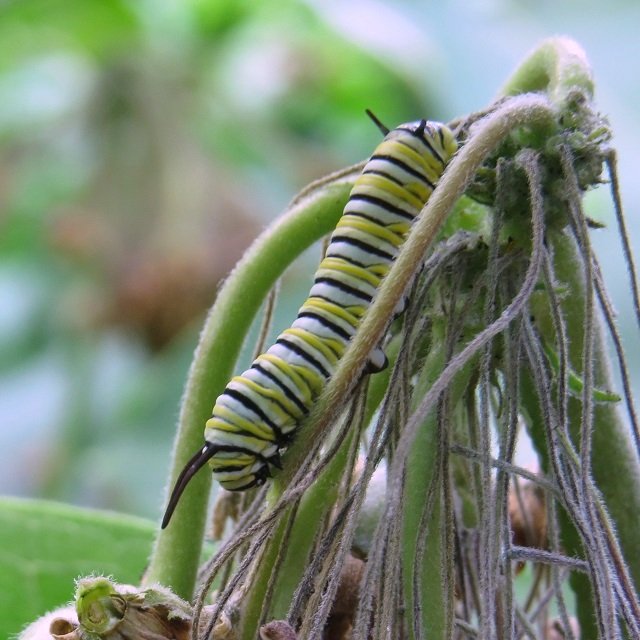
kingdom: Animalia
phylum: Arthropoda
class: Insecta
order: Lepidoptera
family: Nymphalidae
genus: Danaus
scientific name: Danaus plexippus
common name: Monarch
